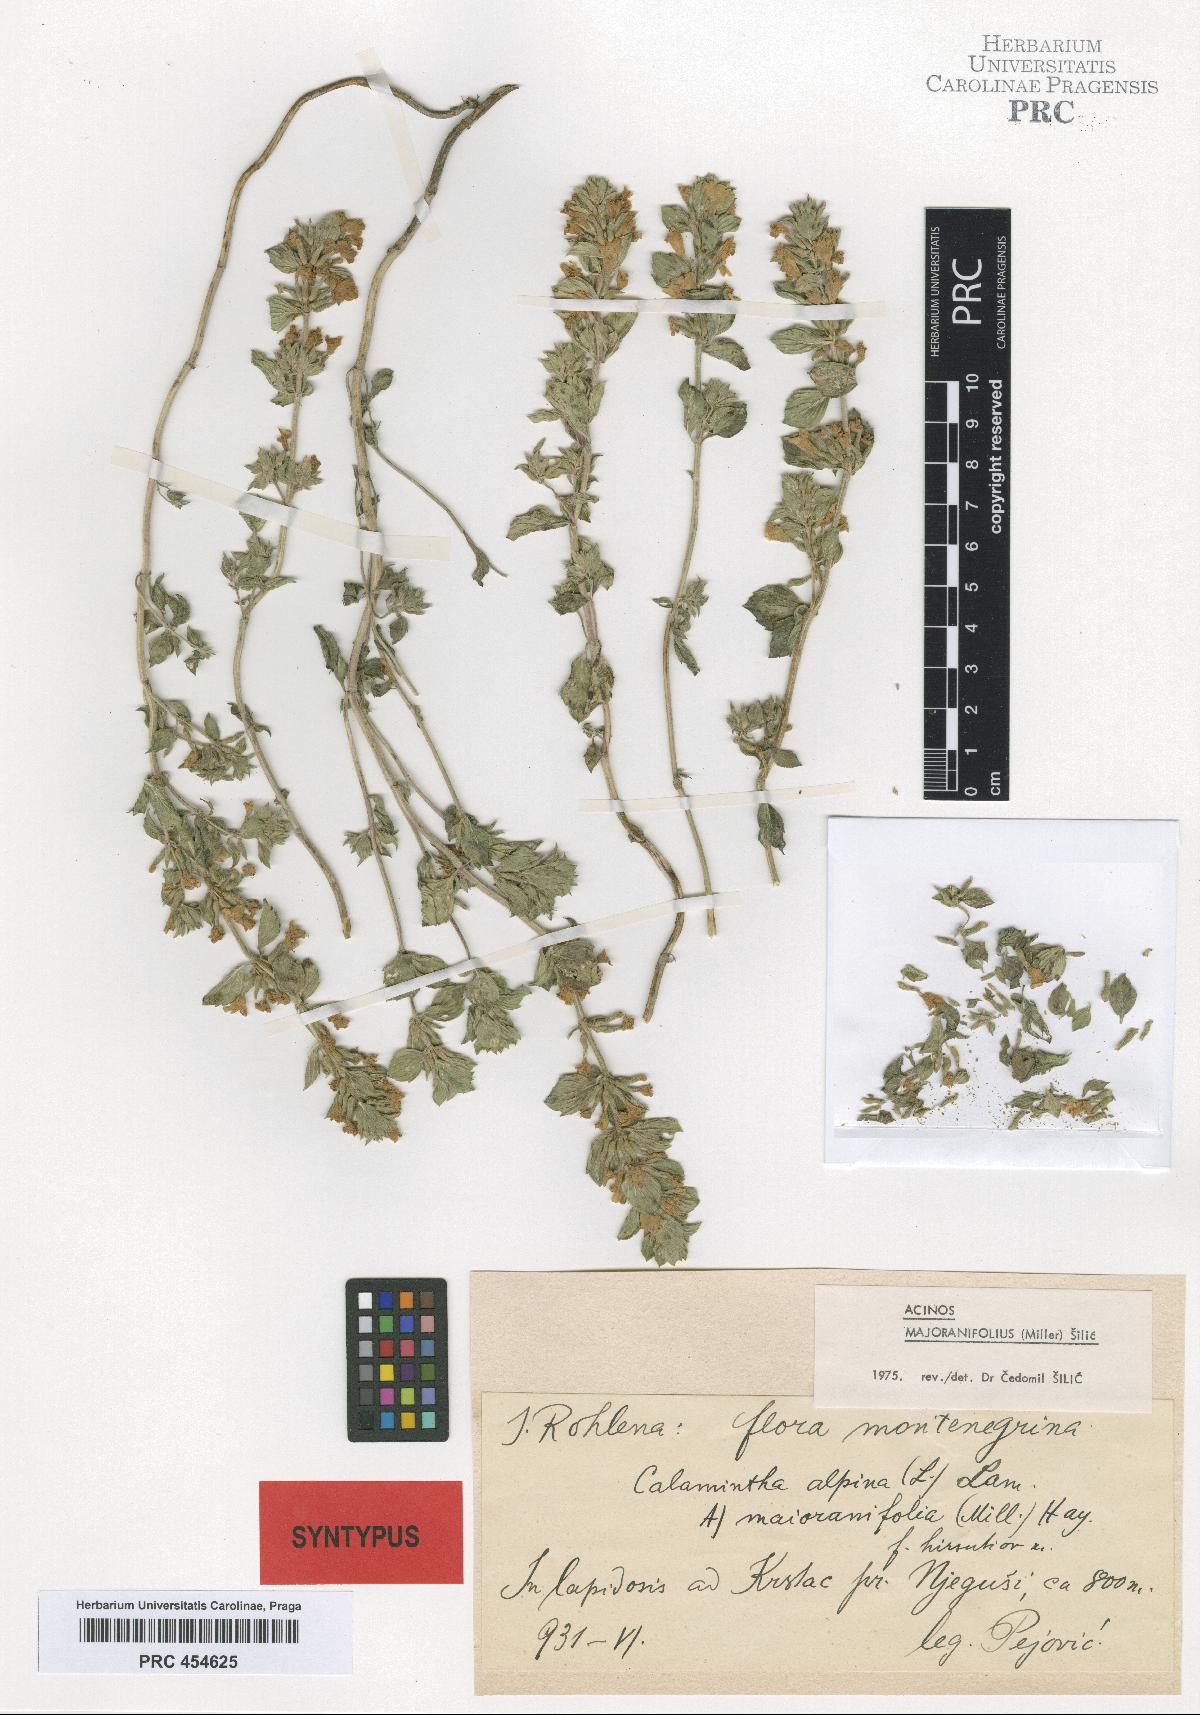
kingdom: Plantae
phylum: Tracheophyta
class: Magnoliopsida
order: Lamiales
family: Lamiaceae
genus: Clinopodium
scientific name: Clinopodium alpinum
